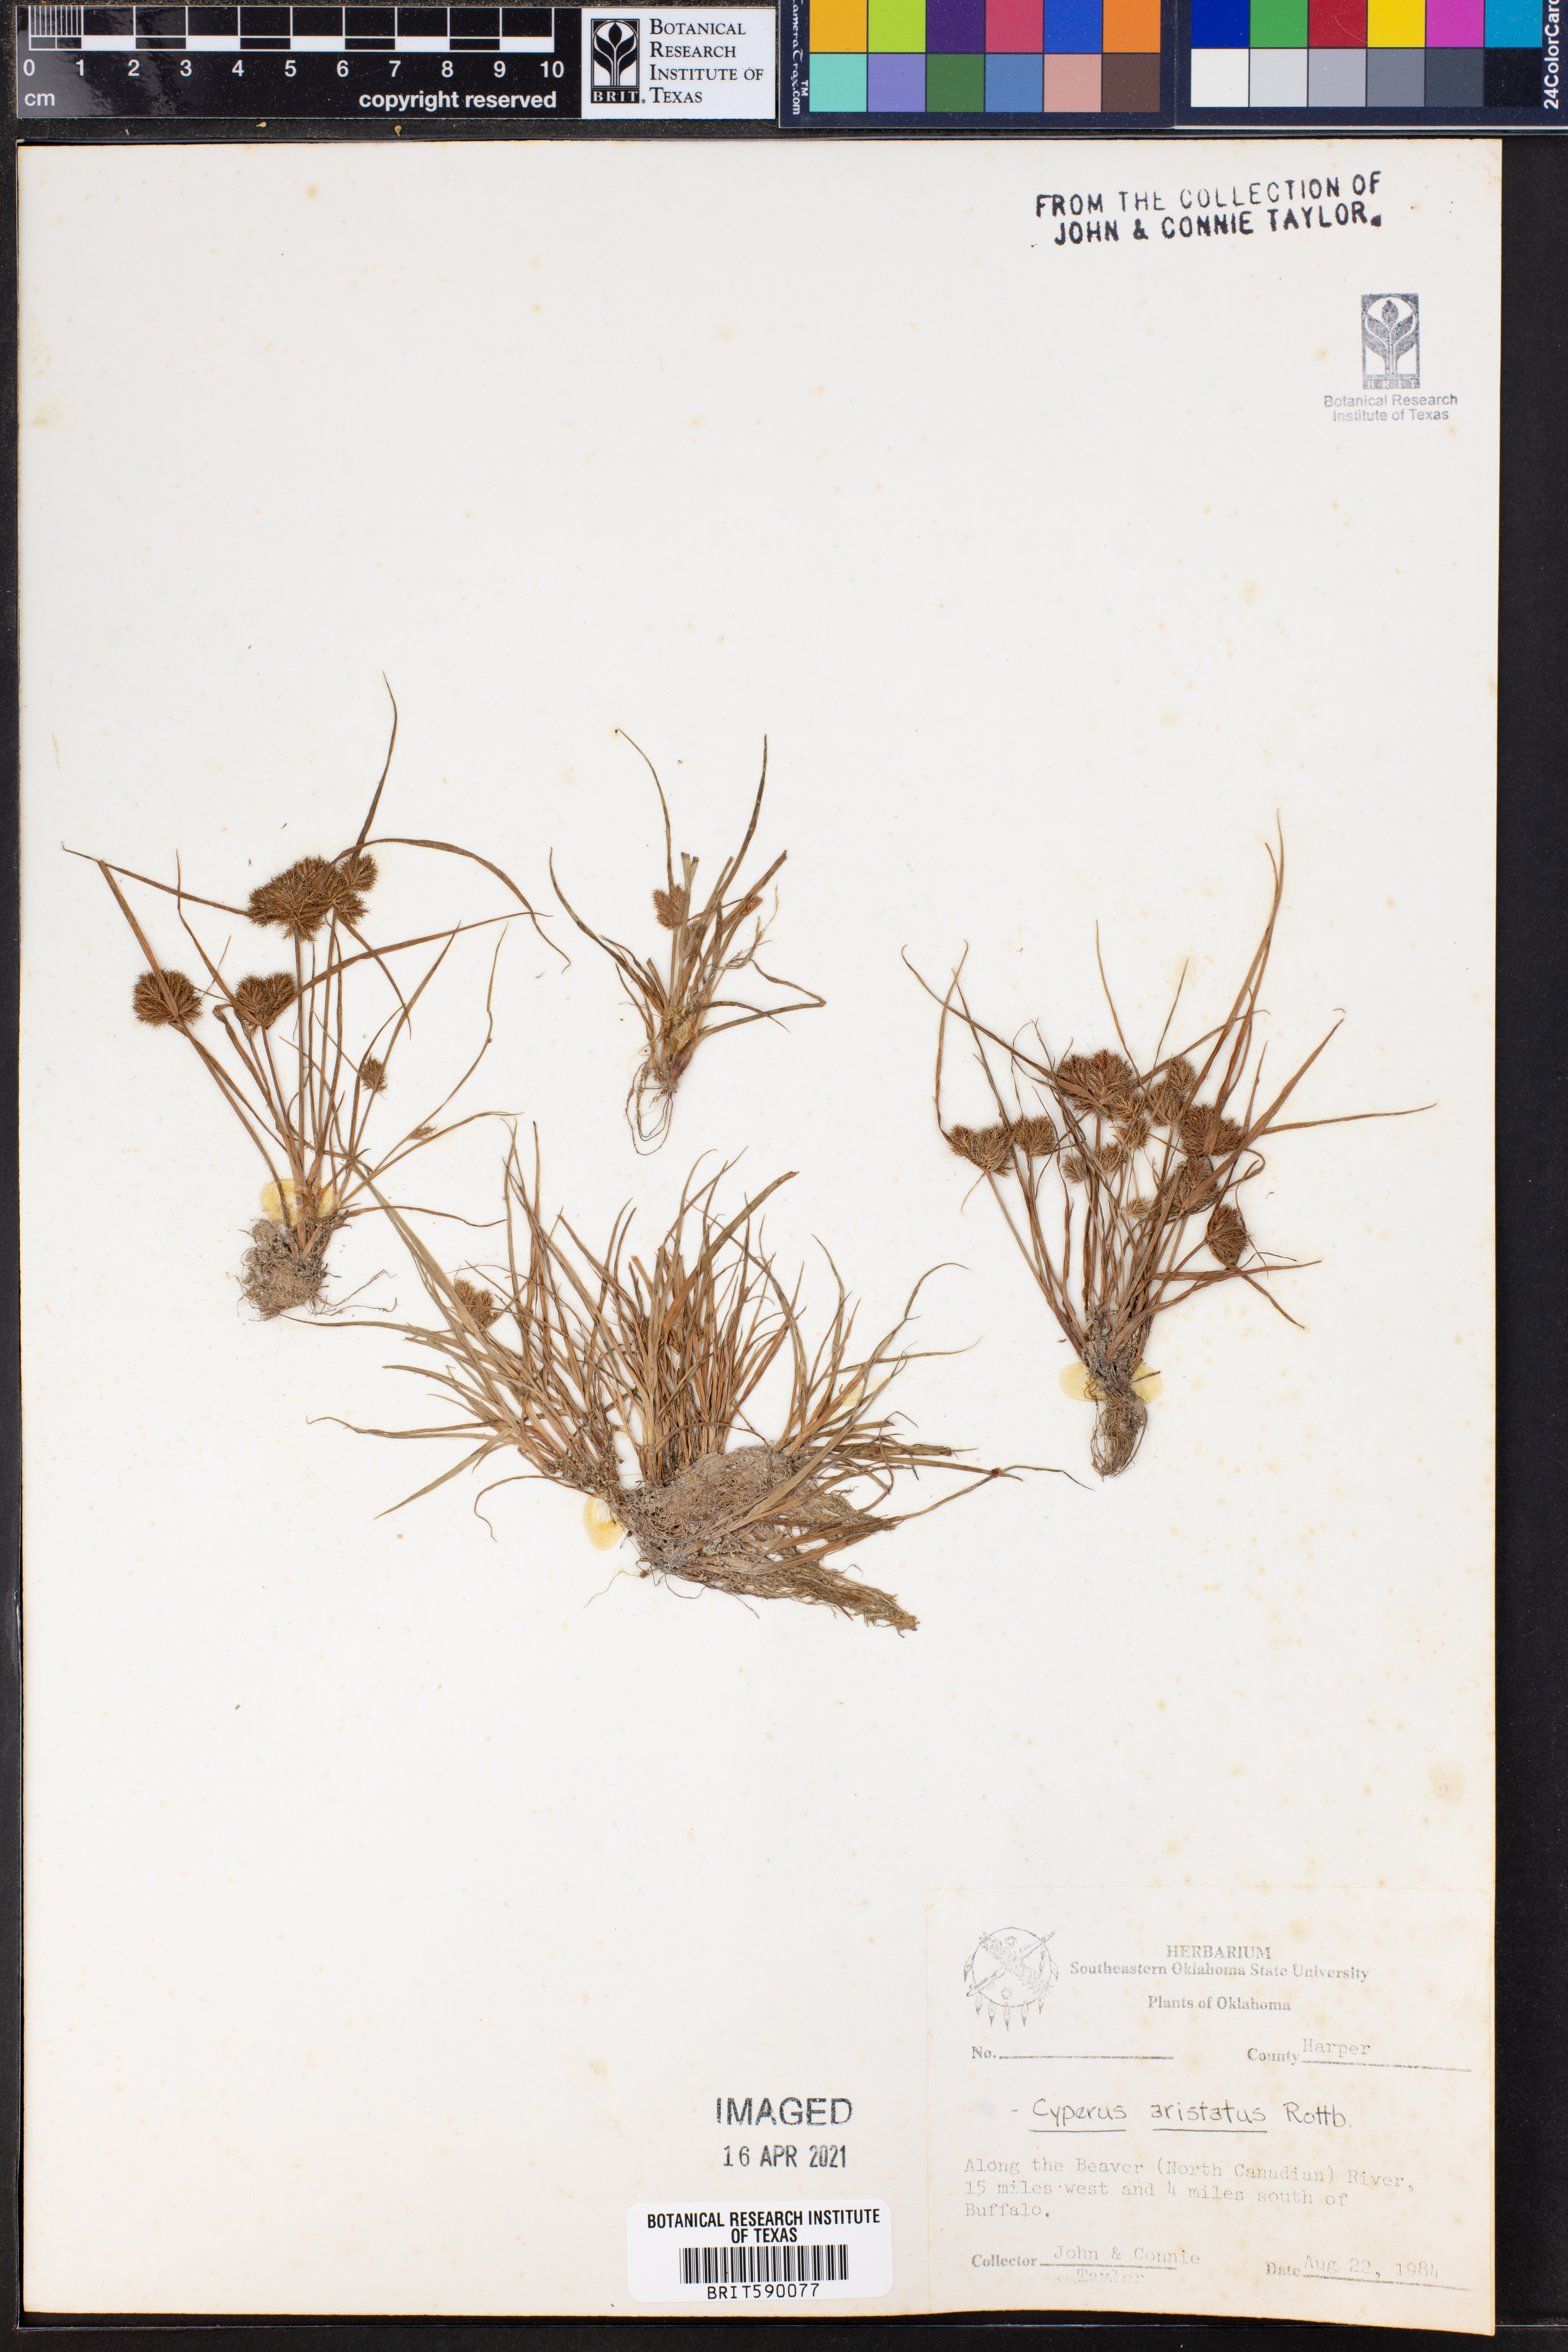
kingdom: Plantae
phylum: Tracheophyta
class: Liliopsida
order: Poales
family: Cyperaceae
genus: Cyperus
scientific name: Cyperus squarrosus
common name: Awned cyperus
